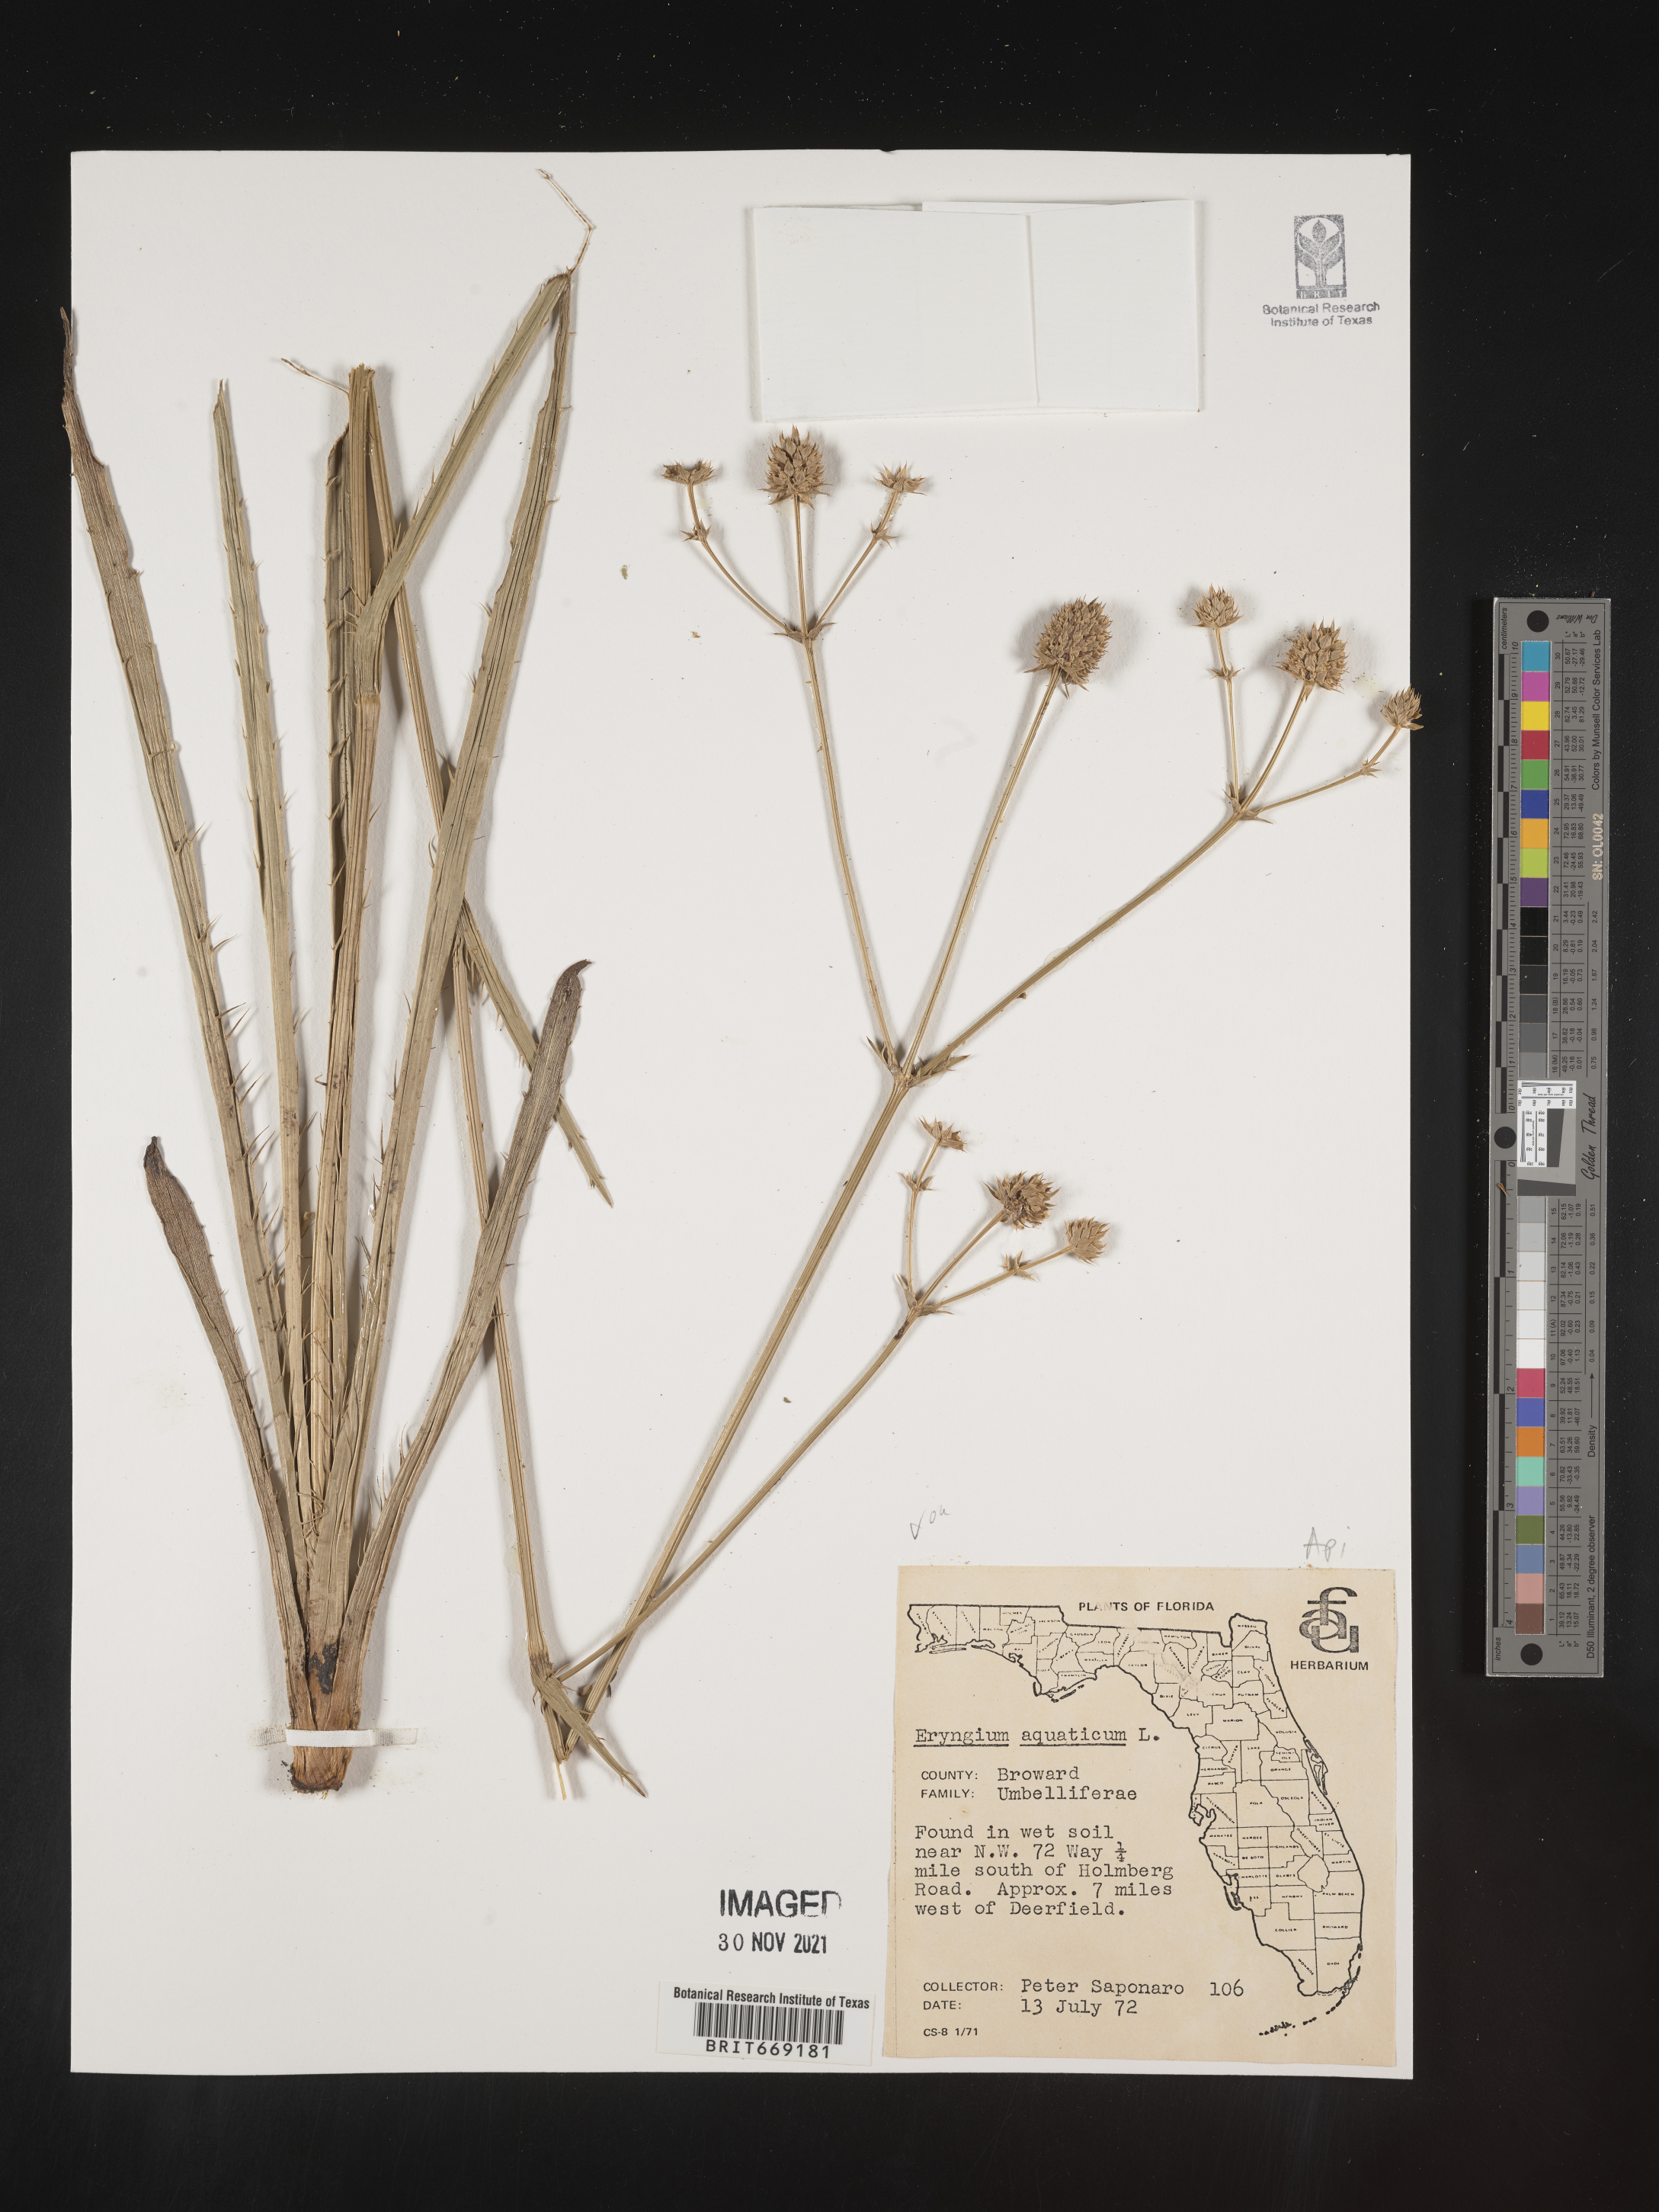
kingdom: Plantae
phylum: Tracheophyta
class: Magnoliopsida
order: Apiales
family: Apiaceae
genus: Eryngium
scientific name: Eryngium aquaticum
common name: Water eryngo
